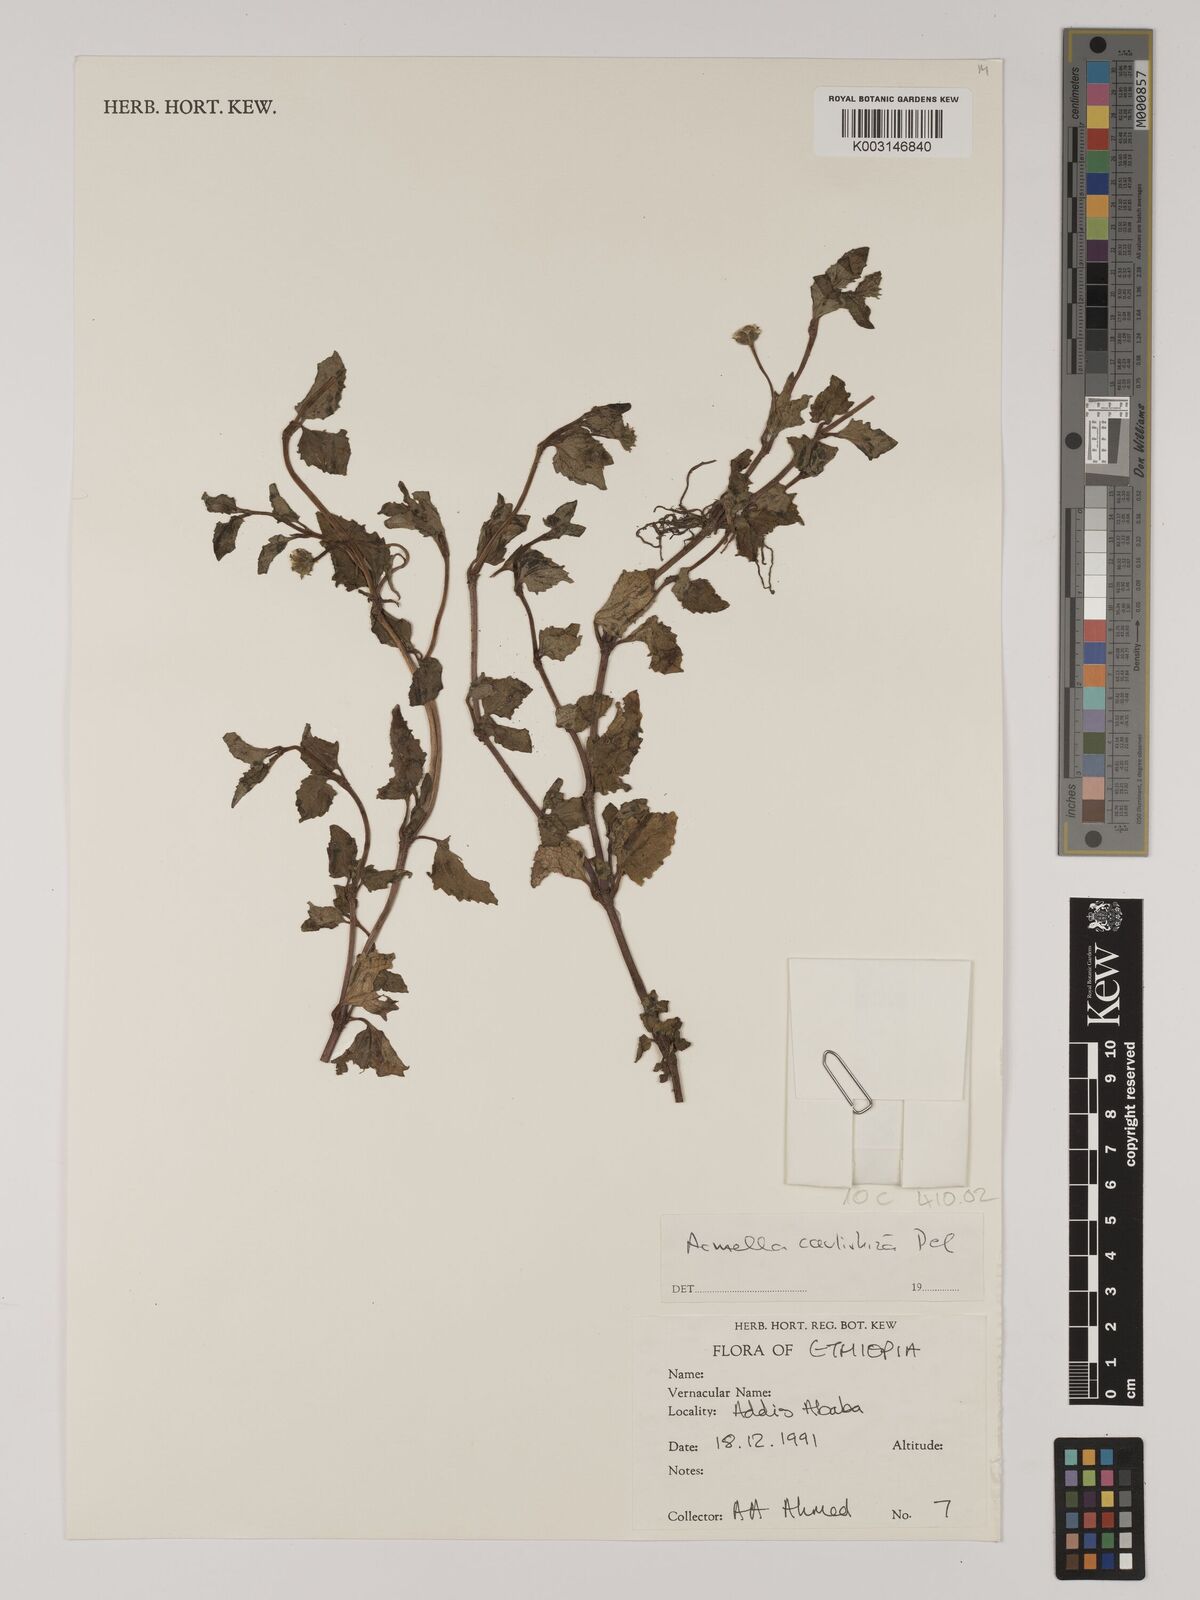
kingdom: Plantae
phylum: Tracheophyta
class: Magnoliopsida
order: Asterales
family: Asteraceae
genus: Acmella
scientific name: Acmella caulirhiza
